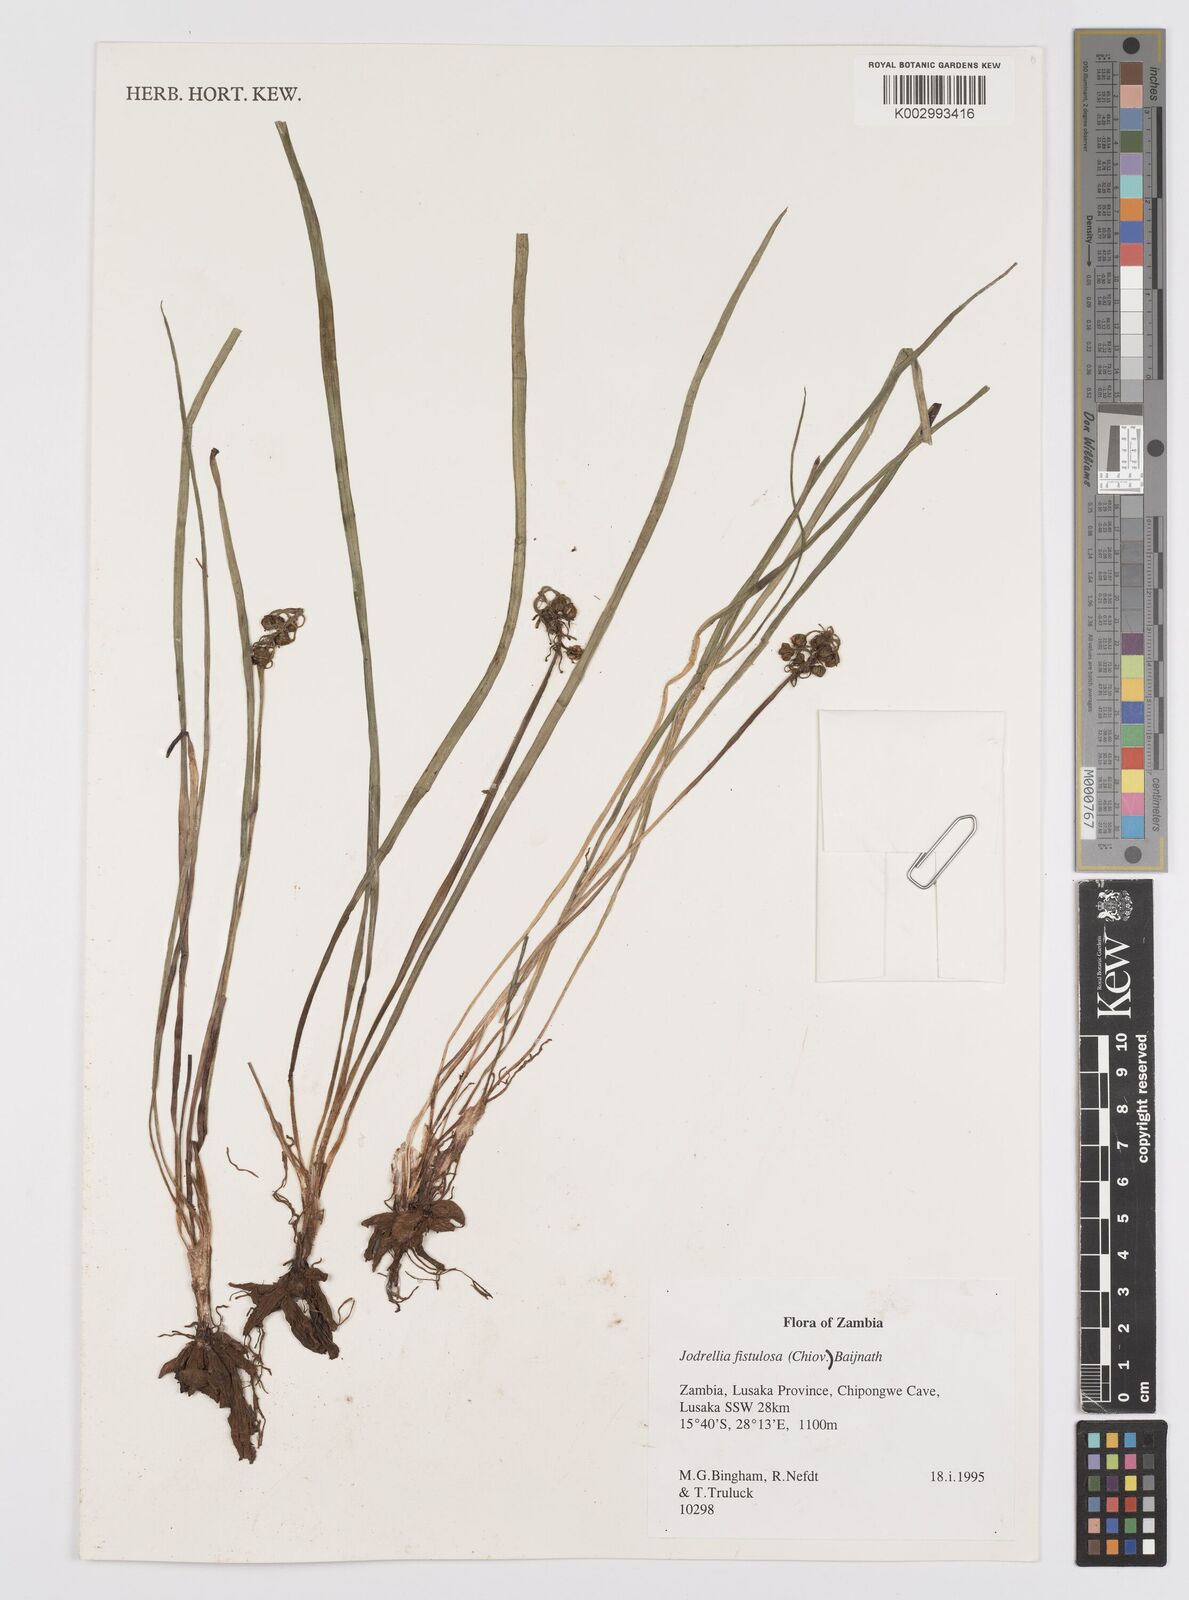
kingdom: Plantae
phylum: Tracheophyta
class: Liliopsida
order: Asparagales
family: Asphodelaceae
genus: Bulbine
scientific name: Bulbine fistulosa
